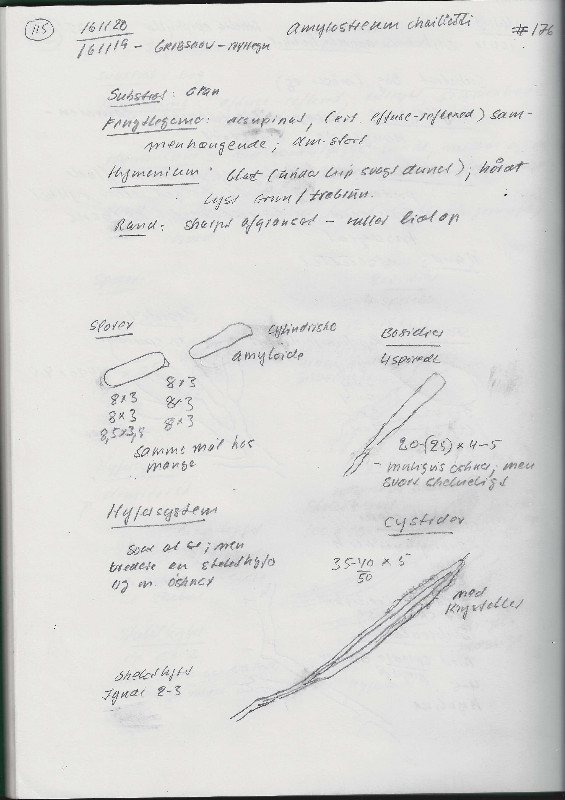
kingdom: Fungi
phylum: Basidiomycota
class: Agaricomycetes
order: Russulales
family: Echinodontiaceae
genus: Amylostereum
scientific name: Amylostereum chailletii
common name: gran-lædersvamp
